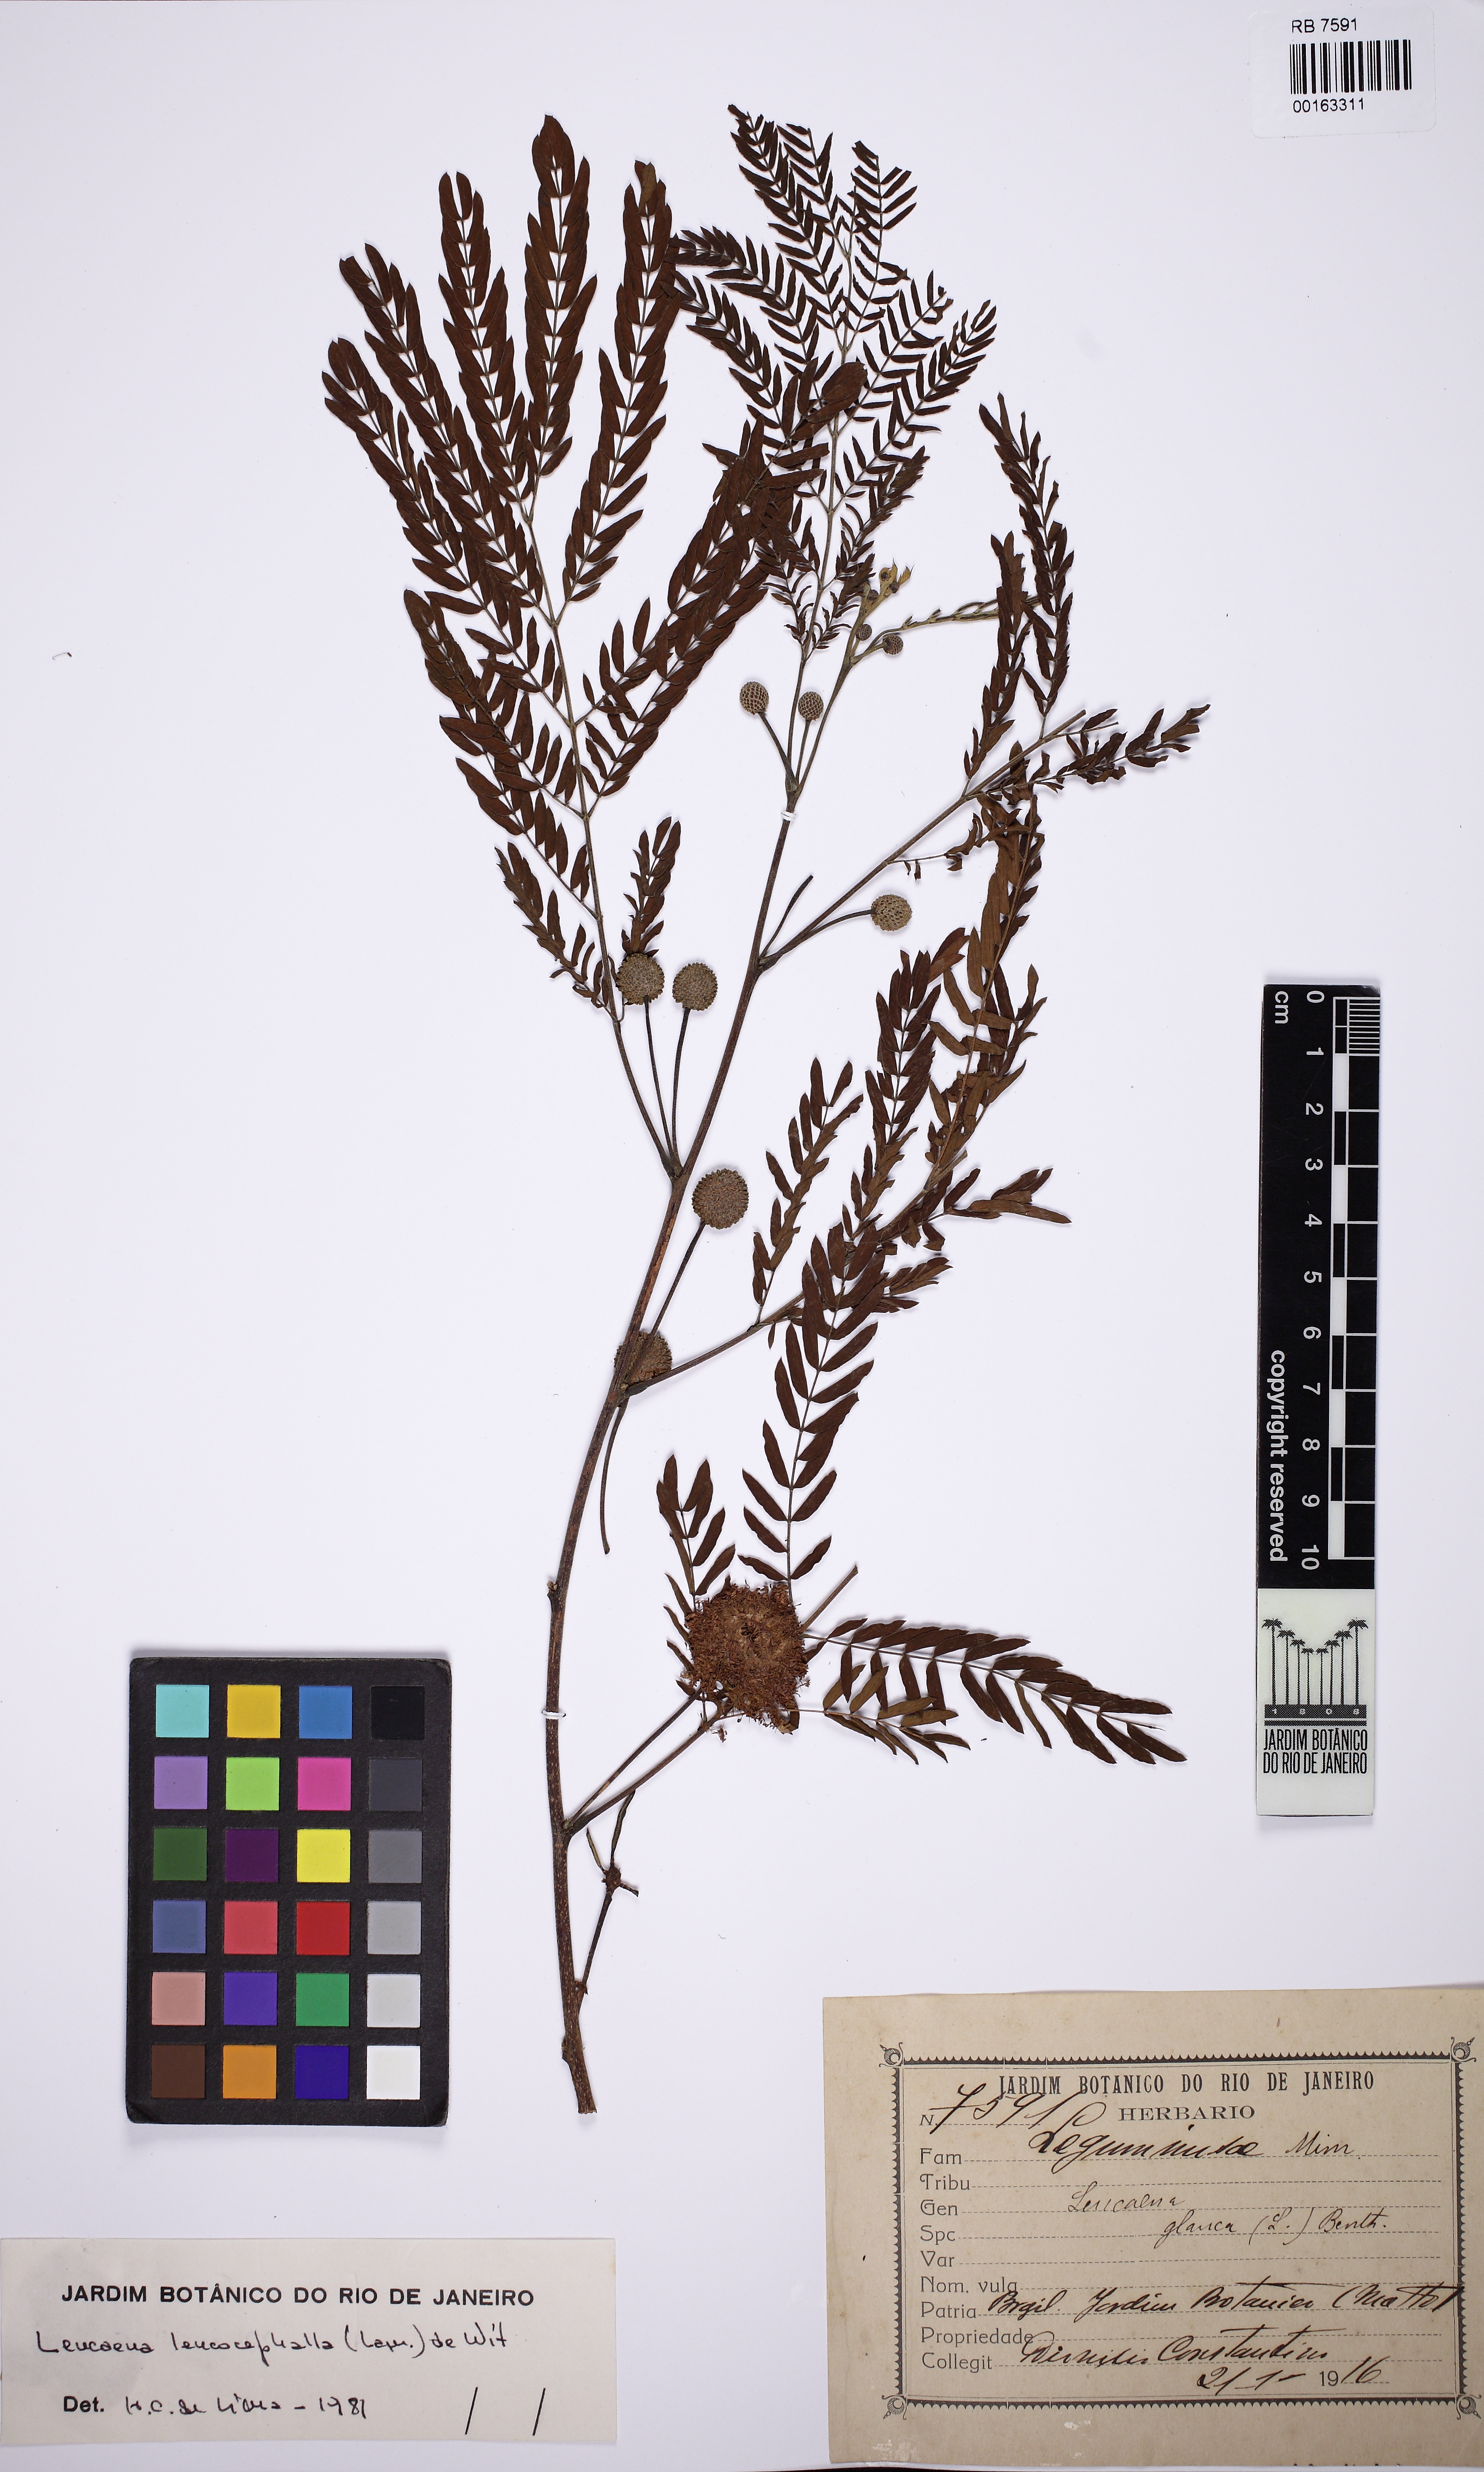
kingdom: Plantae
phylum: Tracheophyta
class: Magnoliopsida
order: Fabales
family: Fabaceae
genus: Leucaena
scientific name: Leucaena leucocephala
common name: White leadtree
